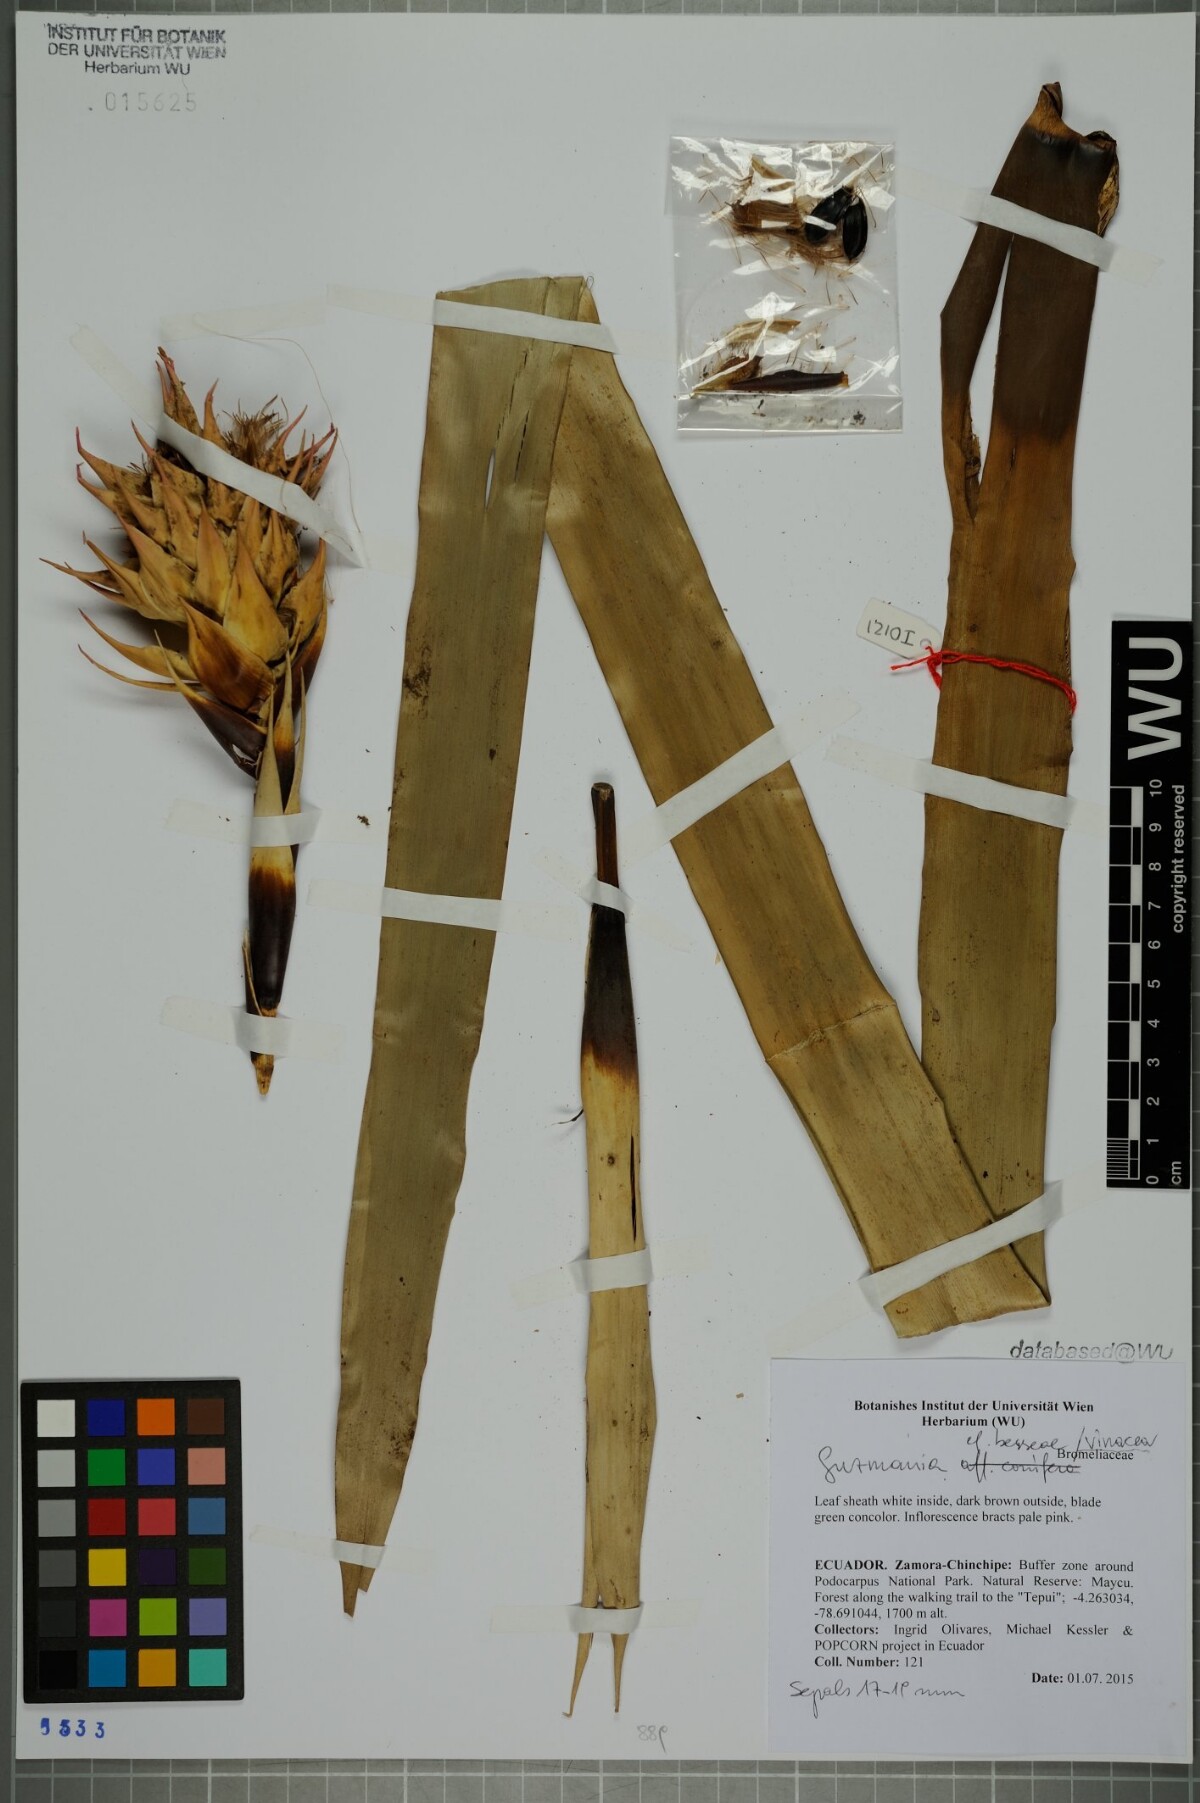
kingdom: Plantae
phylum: Tracheophyta
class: Liliopsida
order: Poales
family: Bromeliaceae
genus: Guzmania
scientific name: Guzmania vinacea
